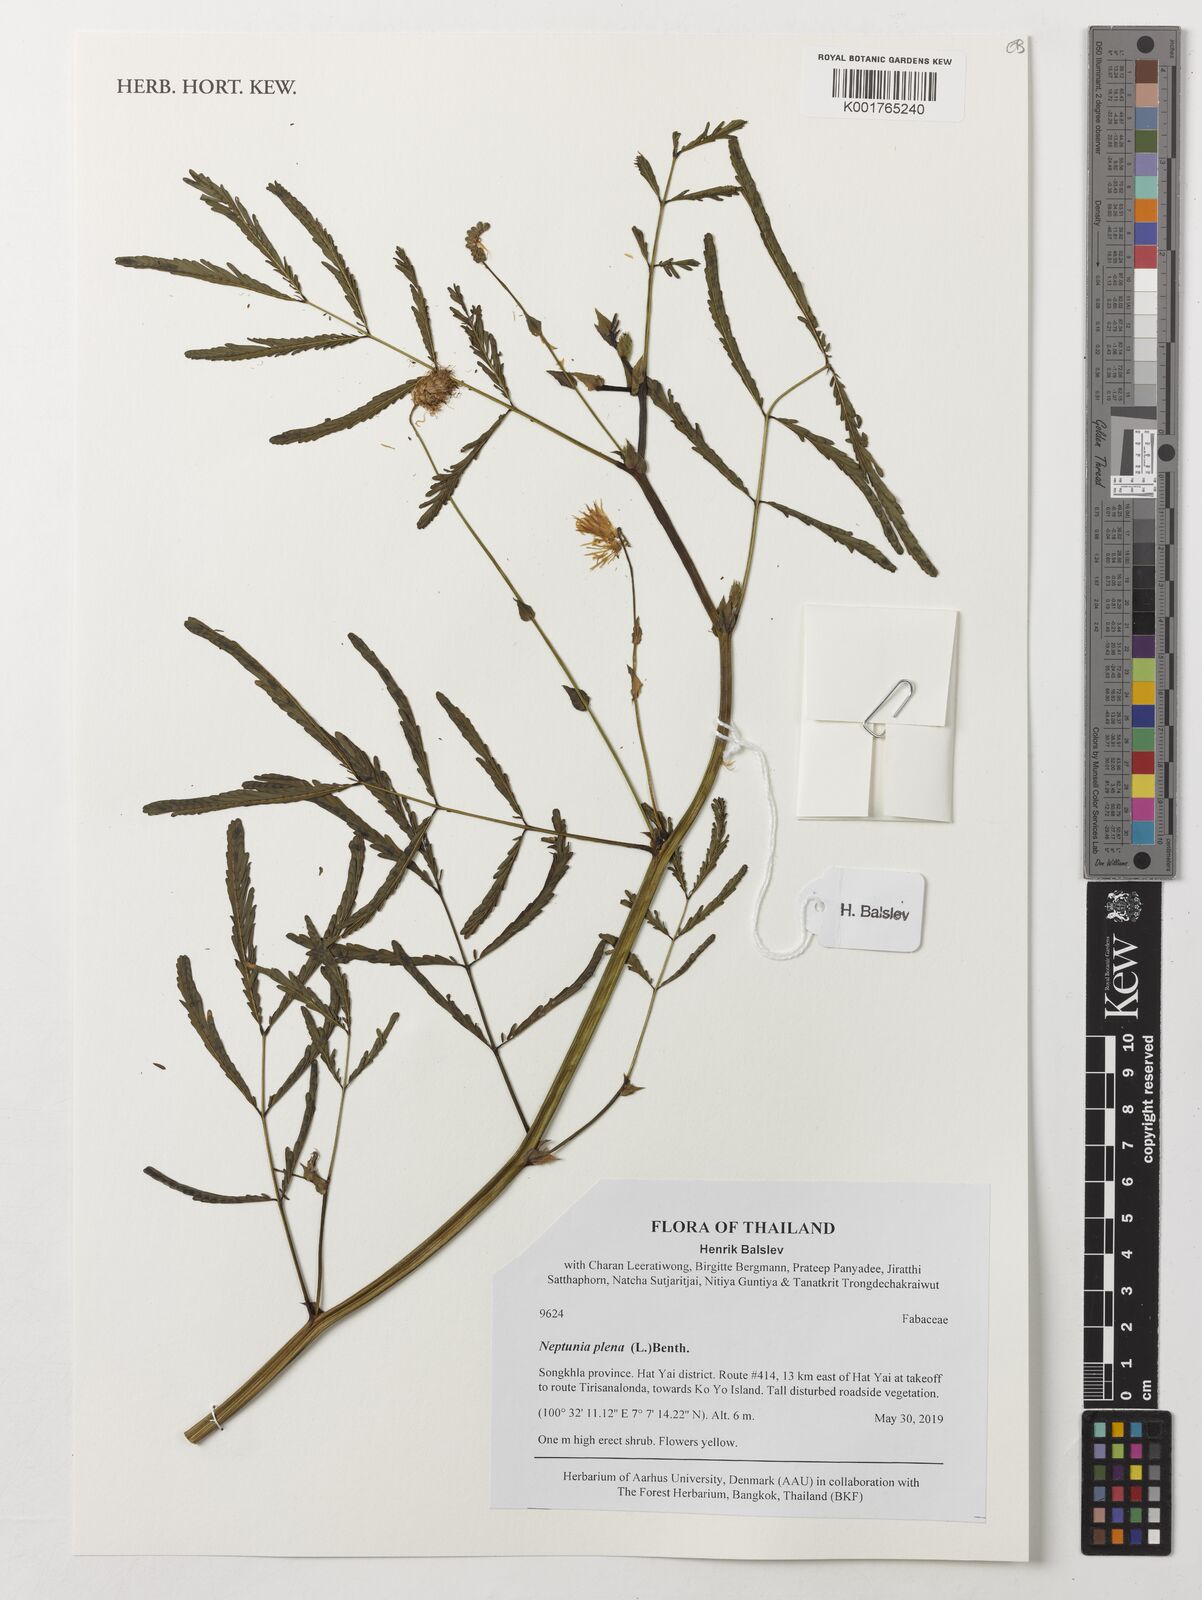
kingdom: Plantae
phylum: Tracheophyta
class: Magnoliopsida
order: Fabales
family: Fabaceae
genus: Neptunia
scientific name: Neptunia plena
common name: Dead and awake
